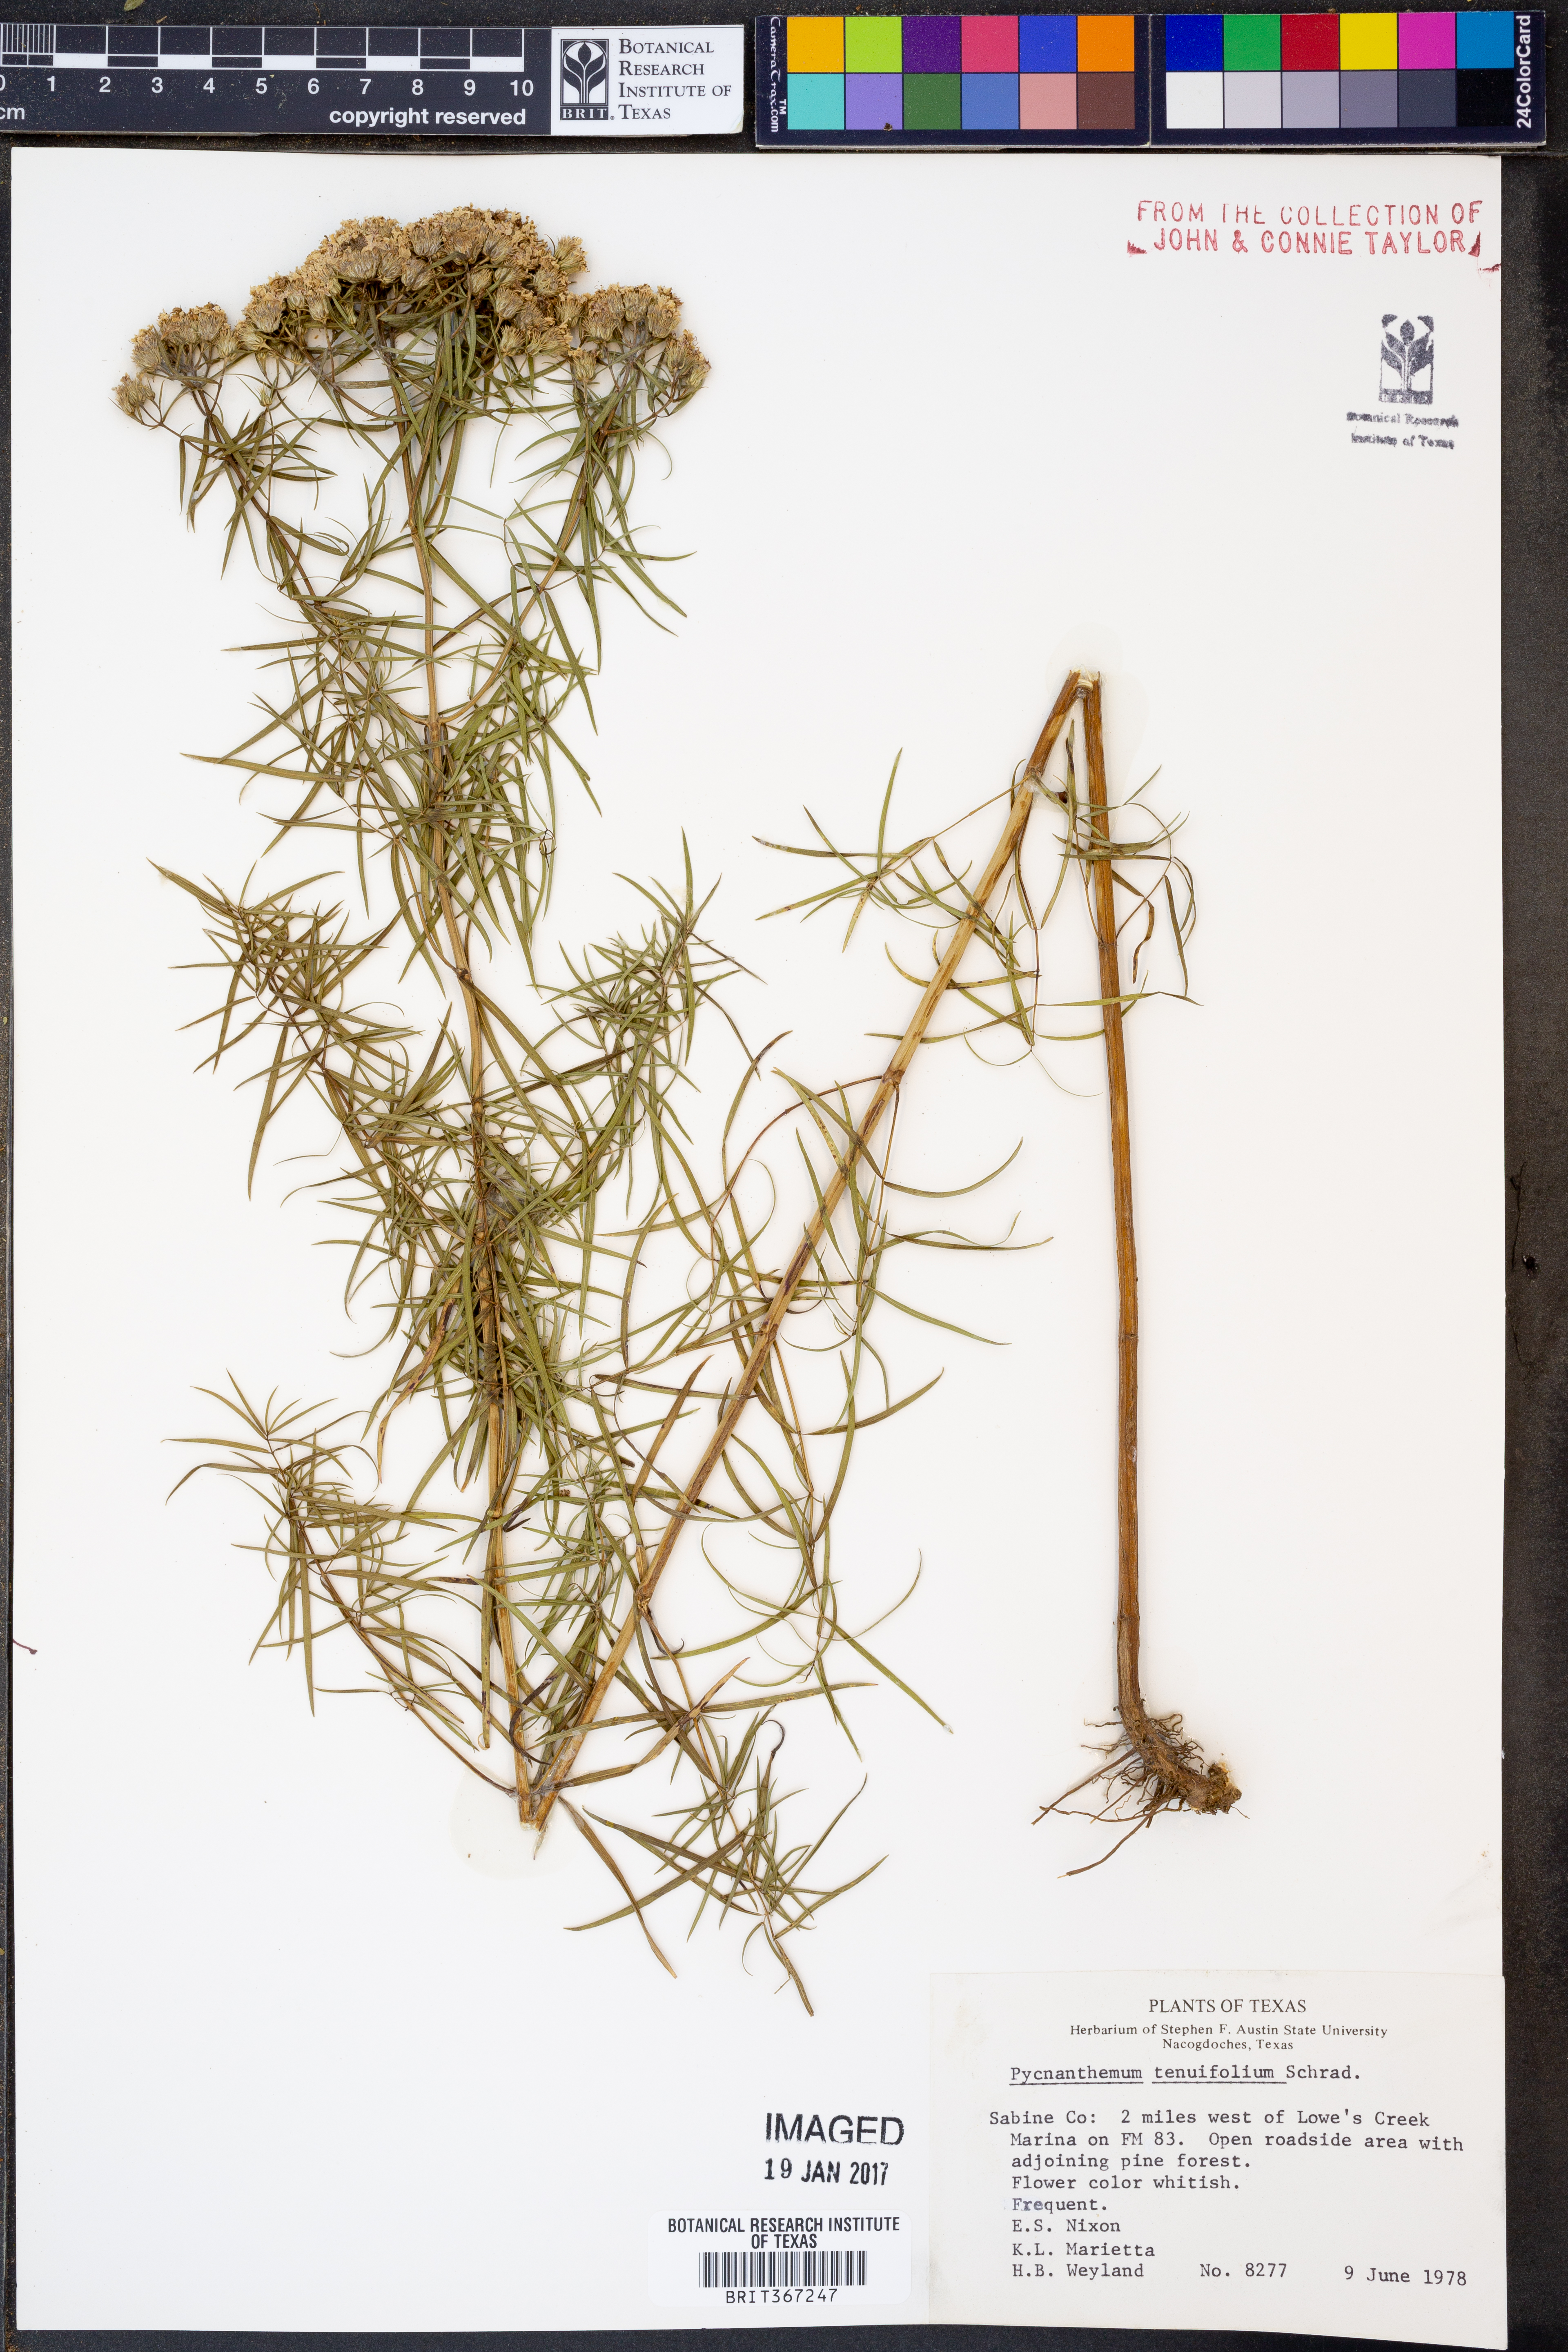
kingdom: Plantae
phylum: Tracheophyta
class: Magnoliopsida
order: Lamiales
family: Lamiaceae
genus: Pycnanthemum
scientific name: Pycnanthemum tenuifolium
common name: Narrow-leaf mountain-mint
